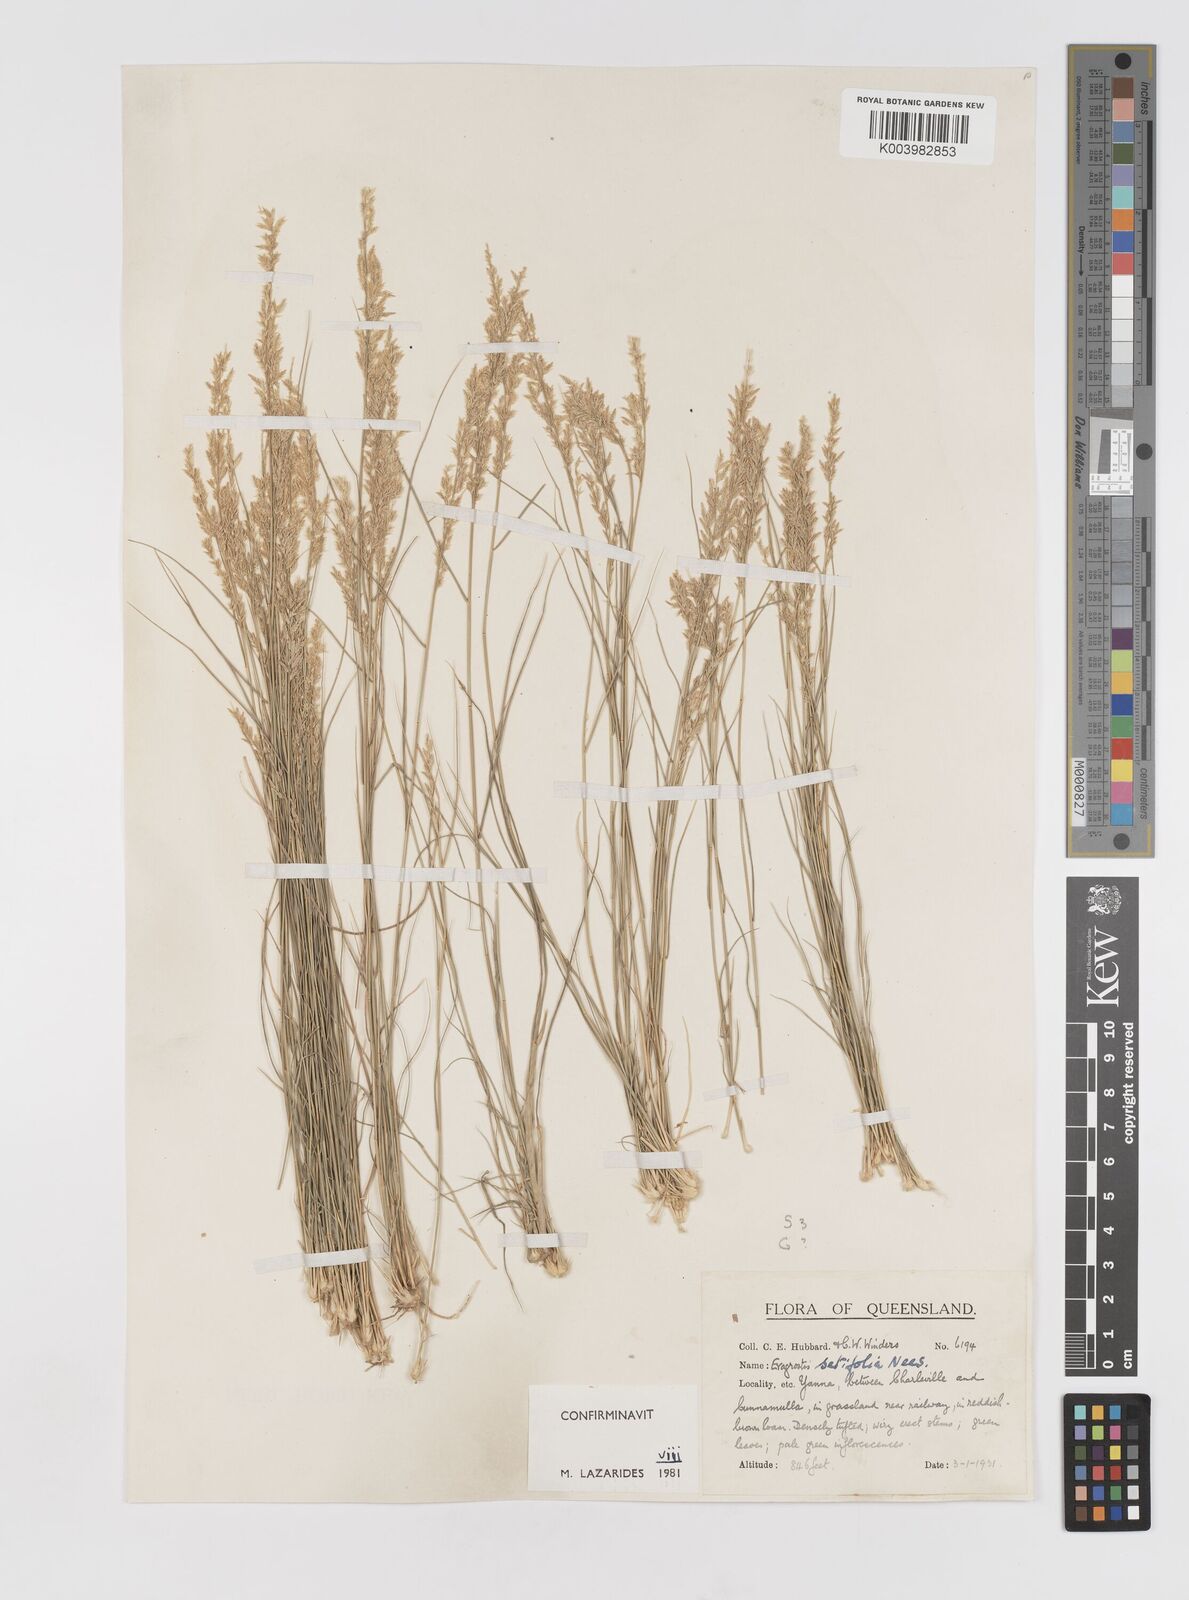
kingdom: Plantae
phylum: Tracheophyta
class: Liliopsida
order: Poales
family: Poaceae
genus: Eragrostis
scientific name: Eragrostis setifolia
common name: Bristleleaf lovegrass
